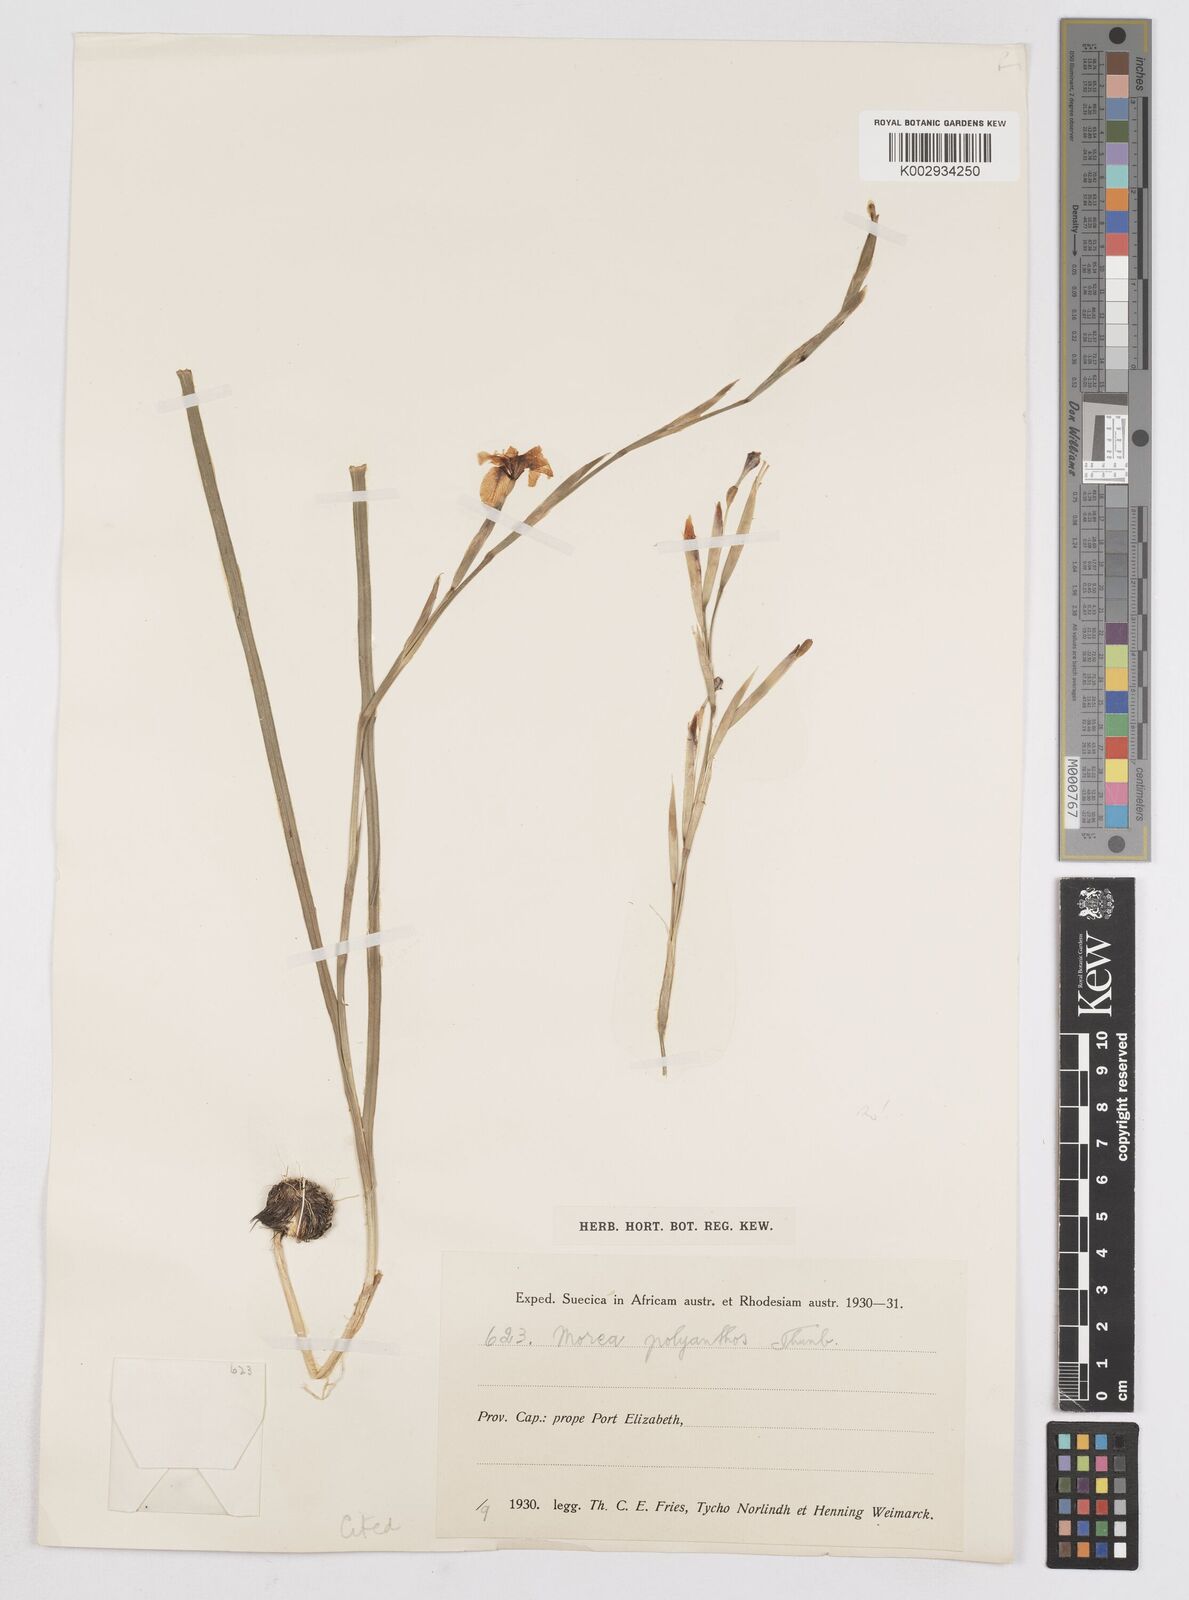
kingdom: Plantae
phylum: Tracheophyta
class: Liliopsida
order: Asparagales
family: Iridaceae
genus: Moraea
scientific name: Moraea bipartita
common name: Blue tulp
